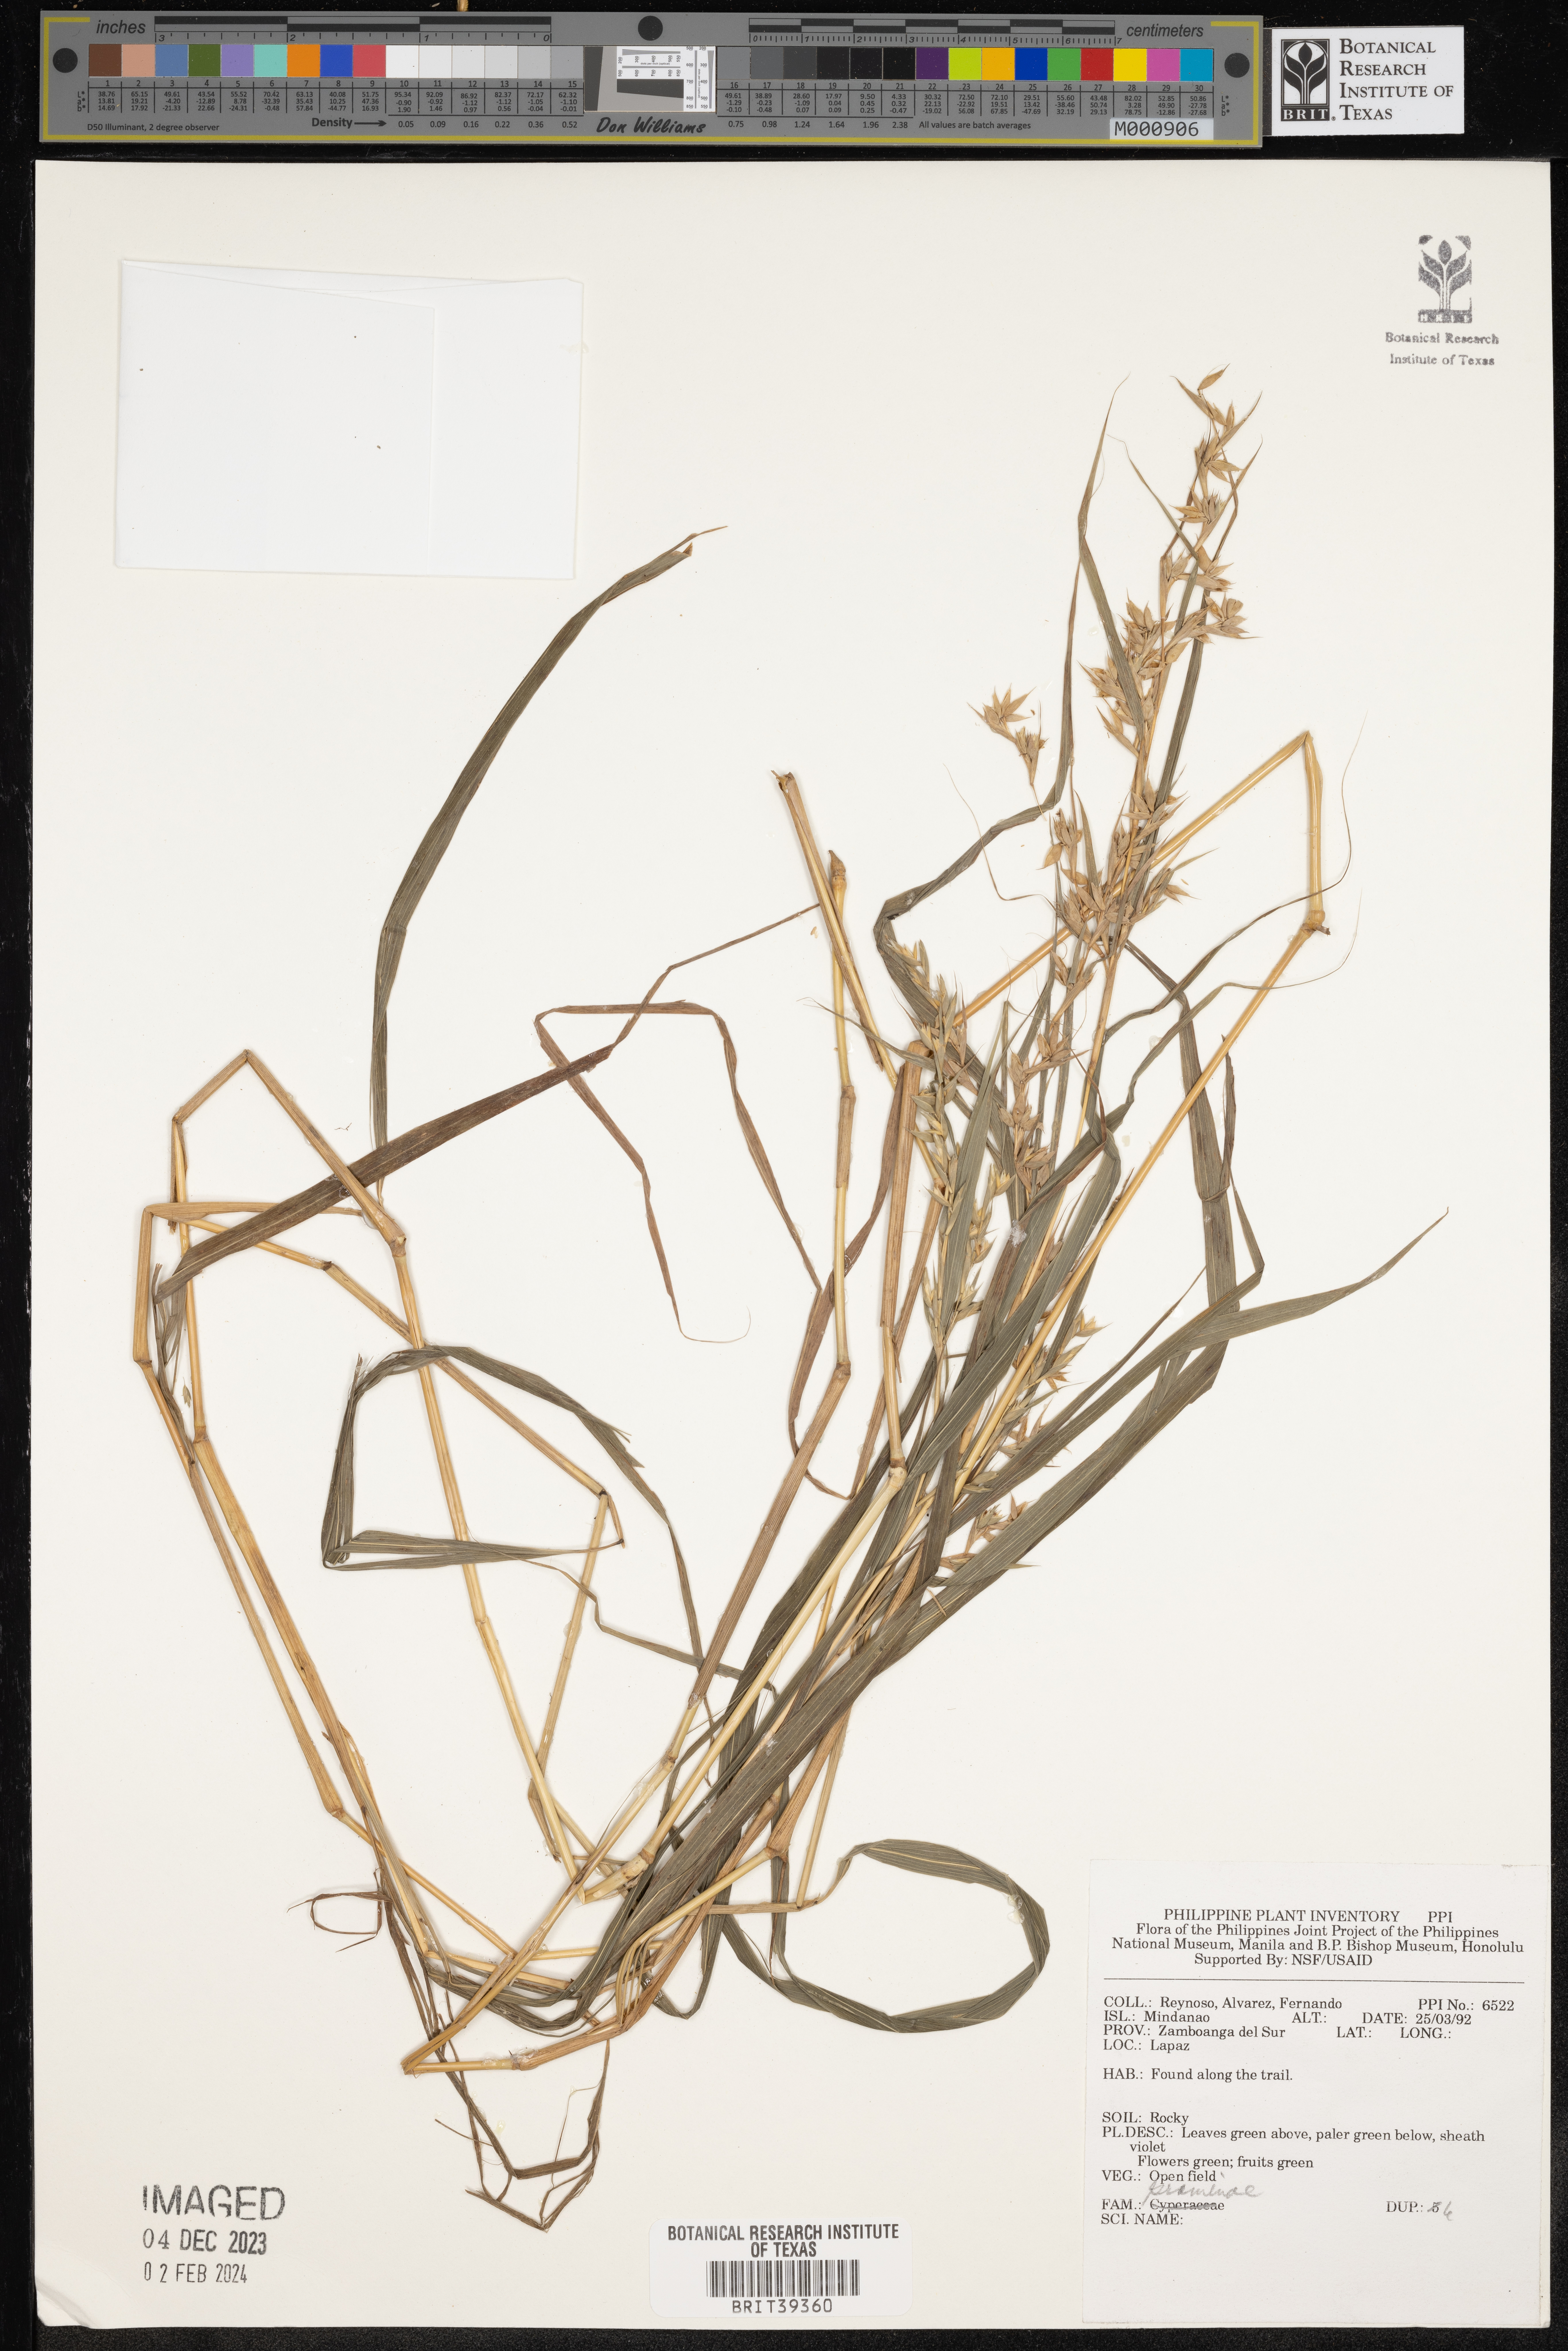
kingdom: Plantae
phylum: Tracheophyta
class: Liliopsida
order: Poales
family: Poaceae
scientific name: Poaceae
